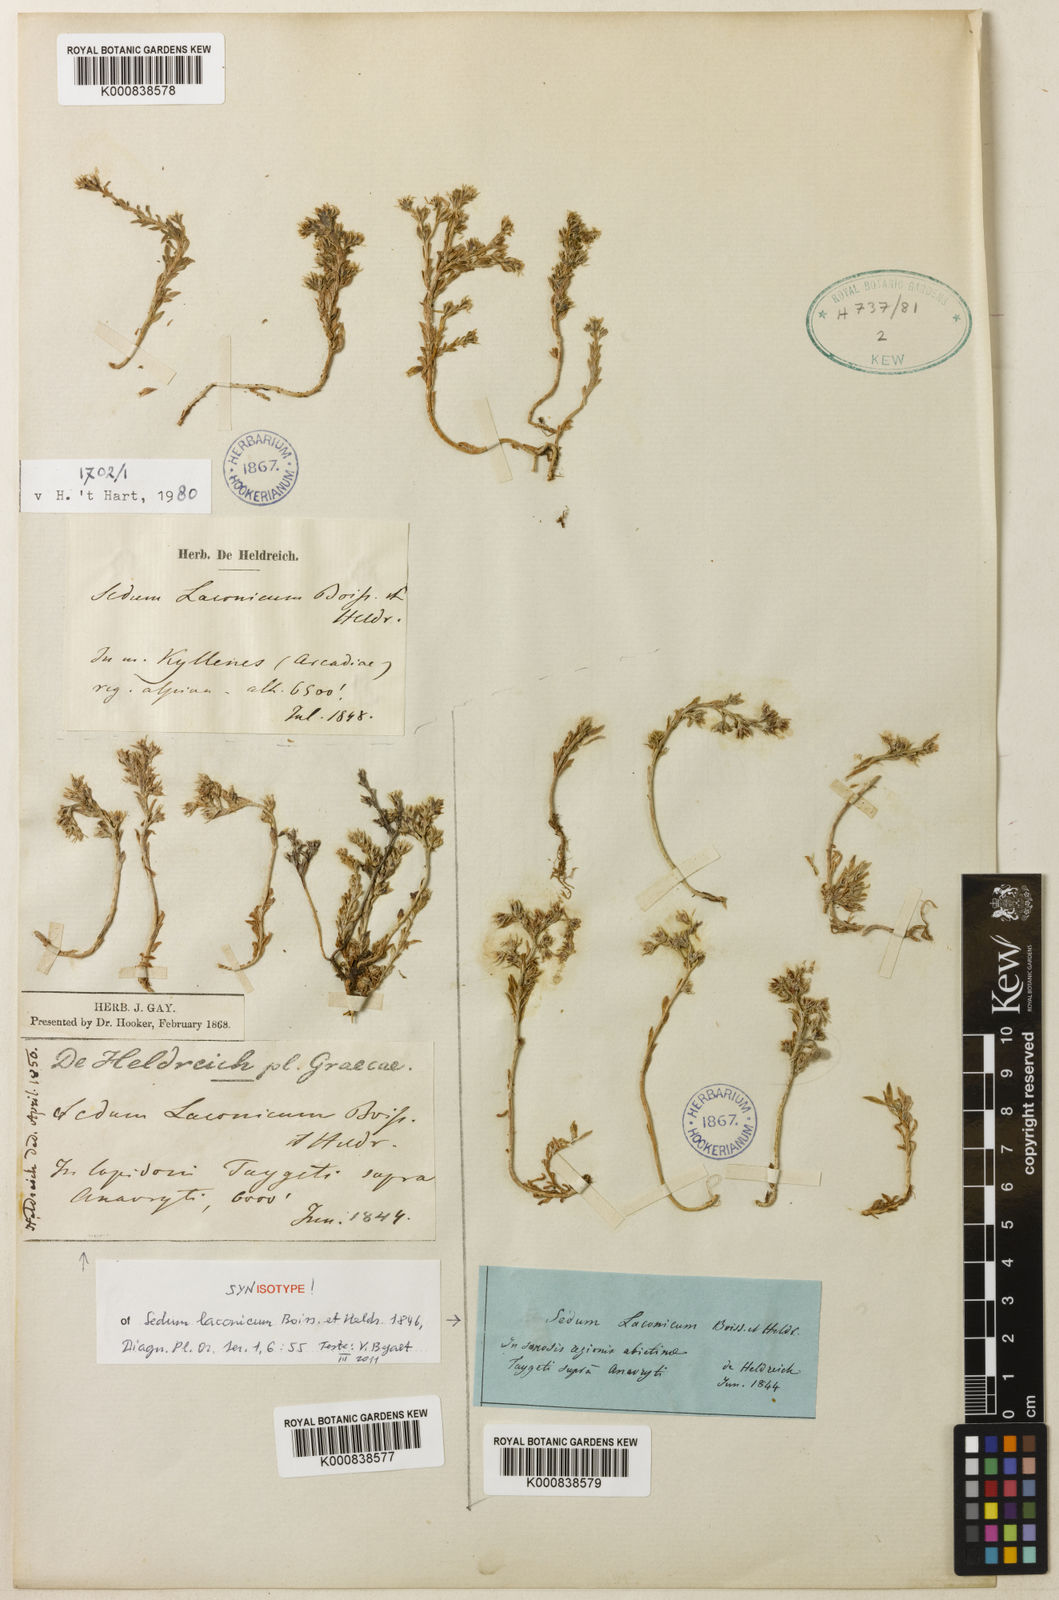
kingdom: Plantae
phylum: Tracheophyta
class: Magnoliopsida
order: Saxifragales
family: Crassulaceae
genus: Sedum
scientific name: Sedum laconicum
